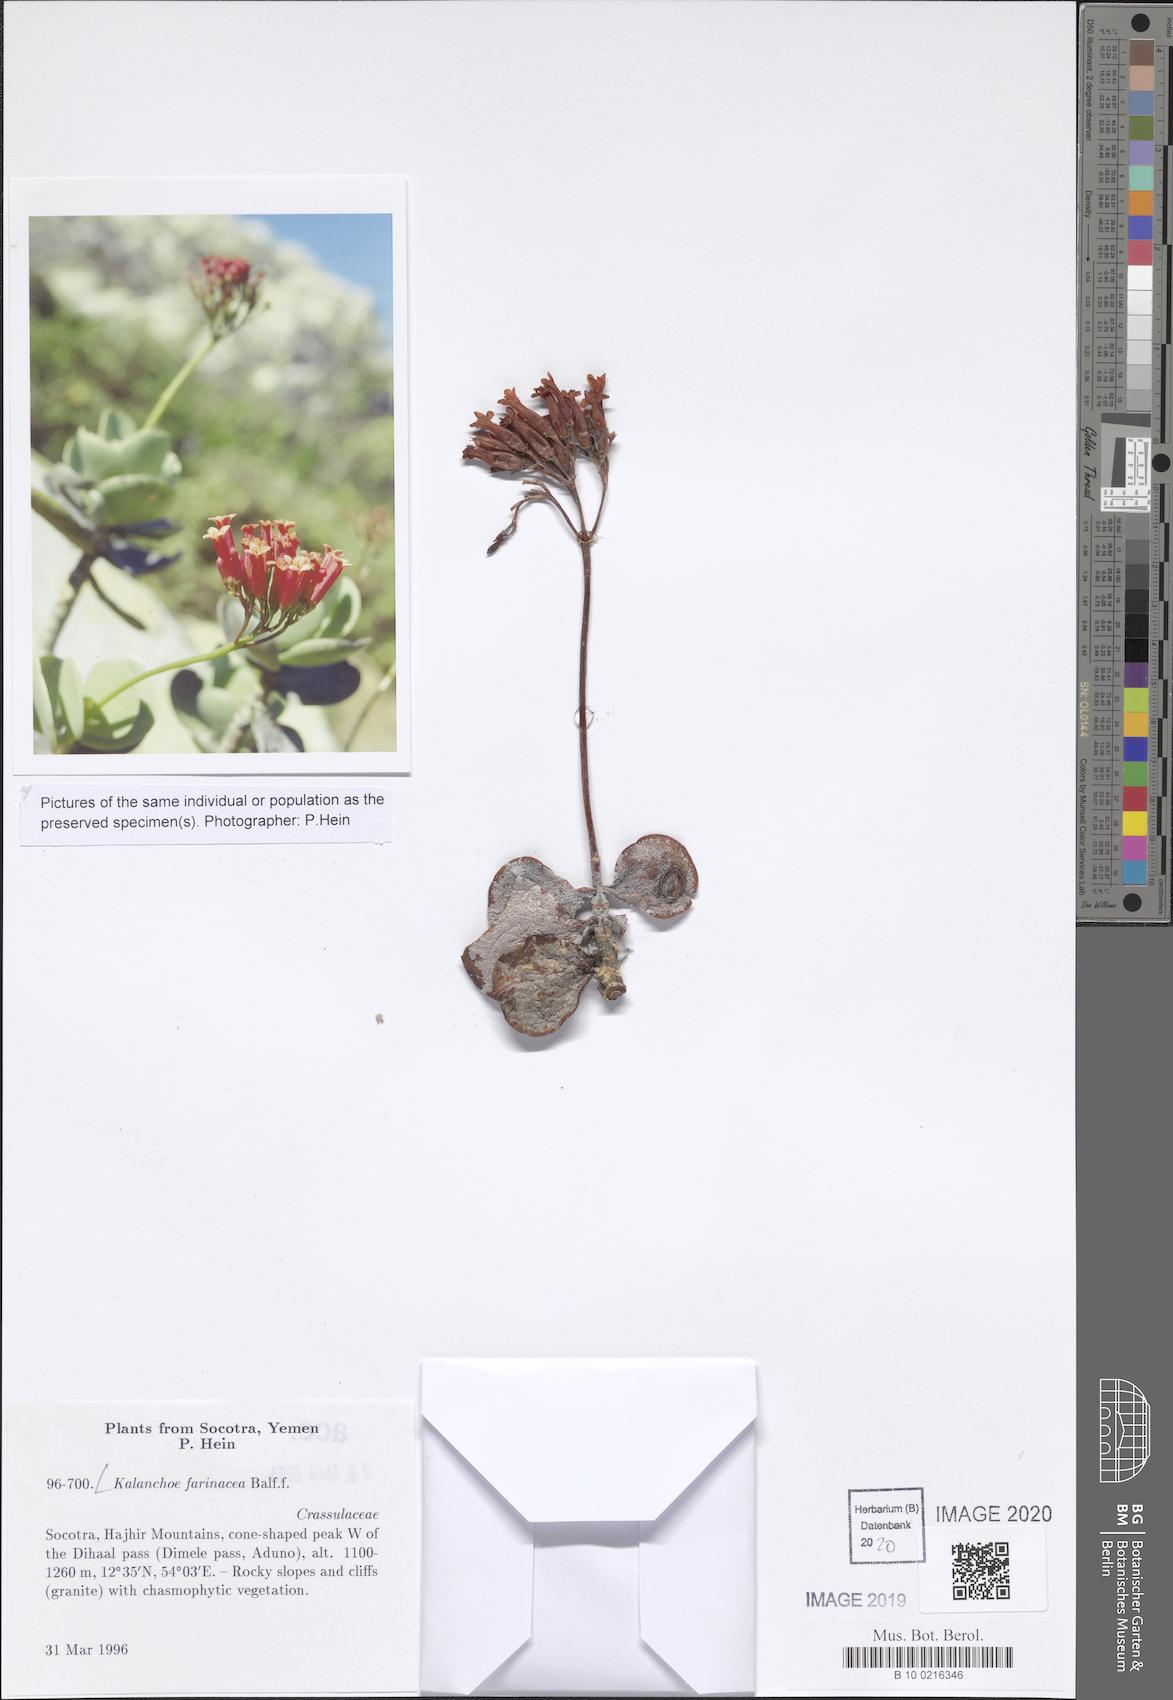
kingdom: Plantae
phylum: Tracheophyta
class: Magnoliopsida
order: Saxifragales
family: Crassulaceae
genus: Kalanchoe
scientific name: Kalanchoe farinacea
